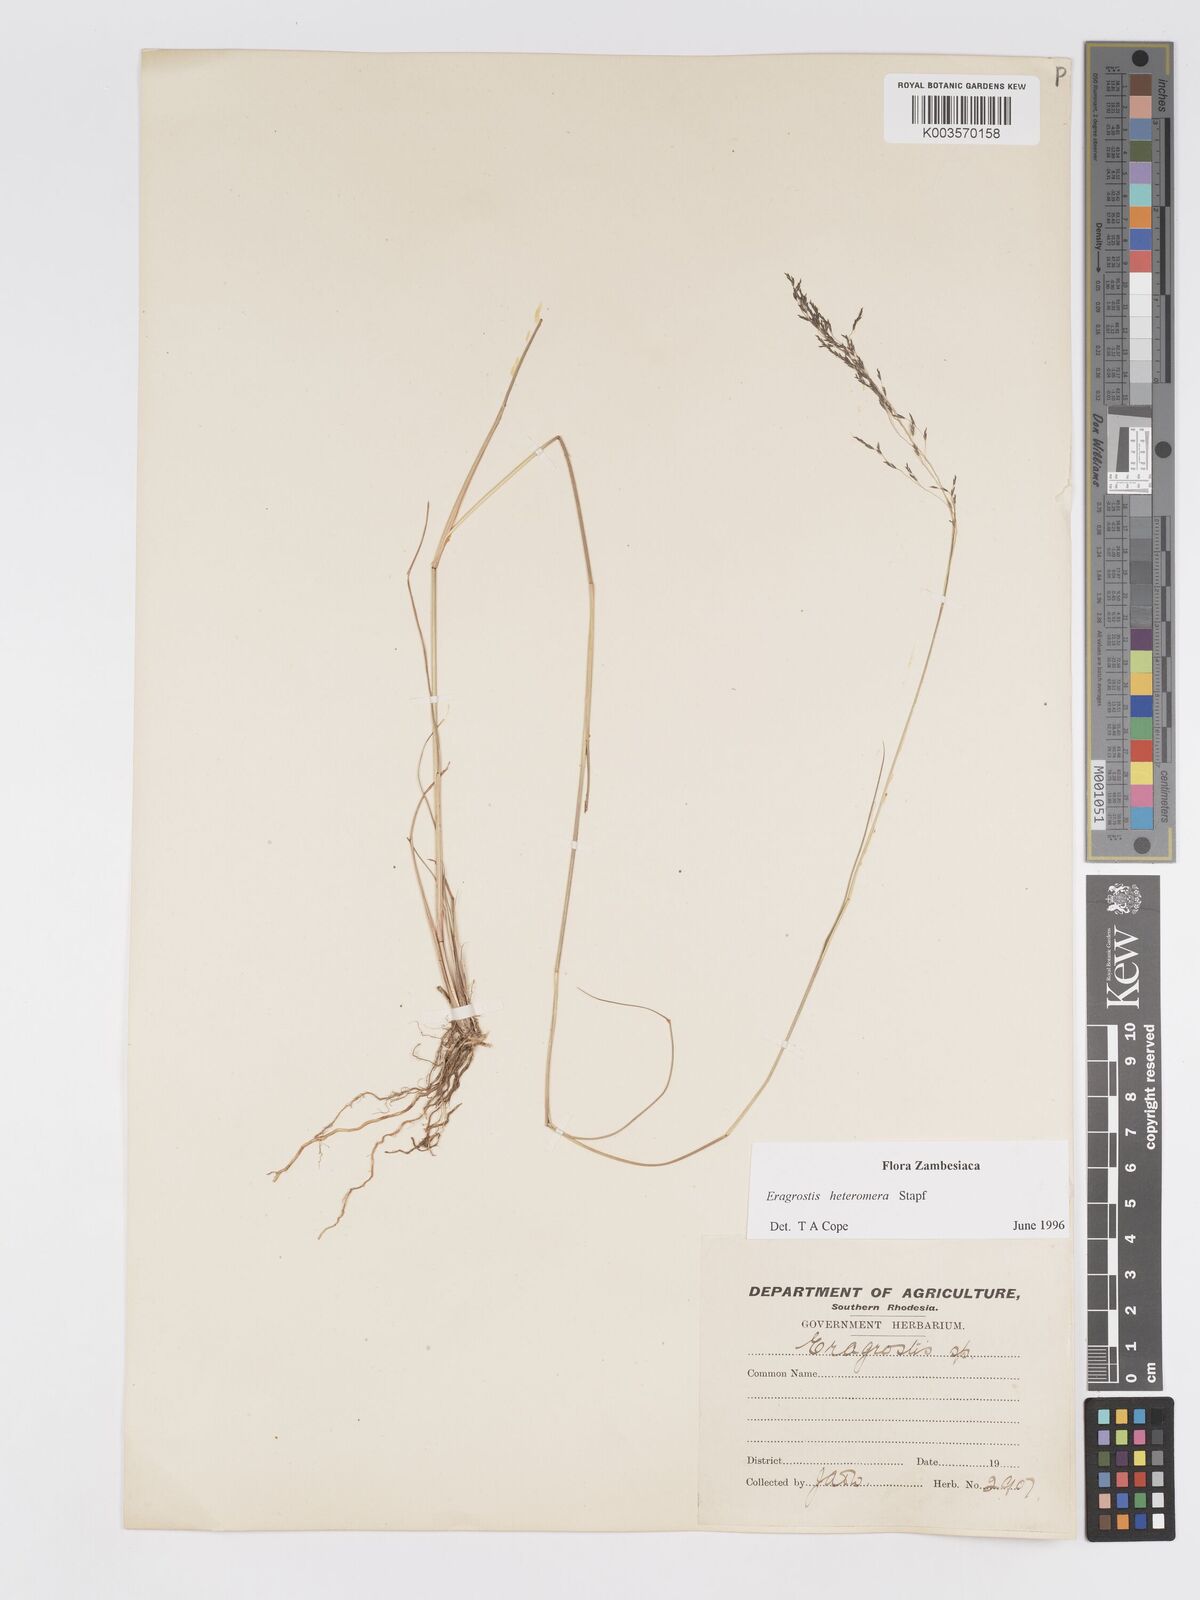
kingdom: Plantae
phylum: Tracheophyta
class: Liliopsida
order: Poales
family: Poaceae
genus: Eragrostis
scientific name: Eragrostis heteromera
